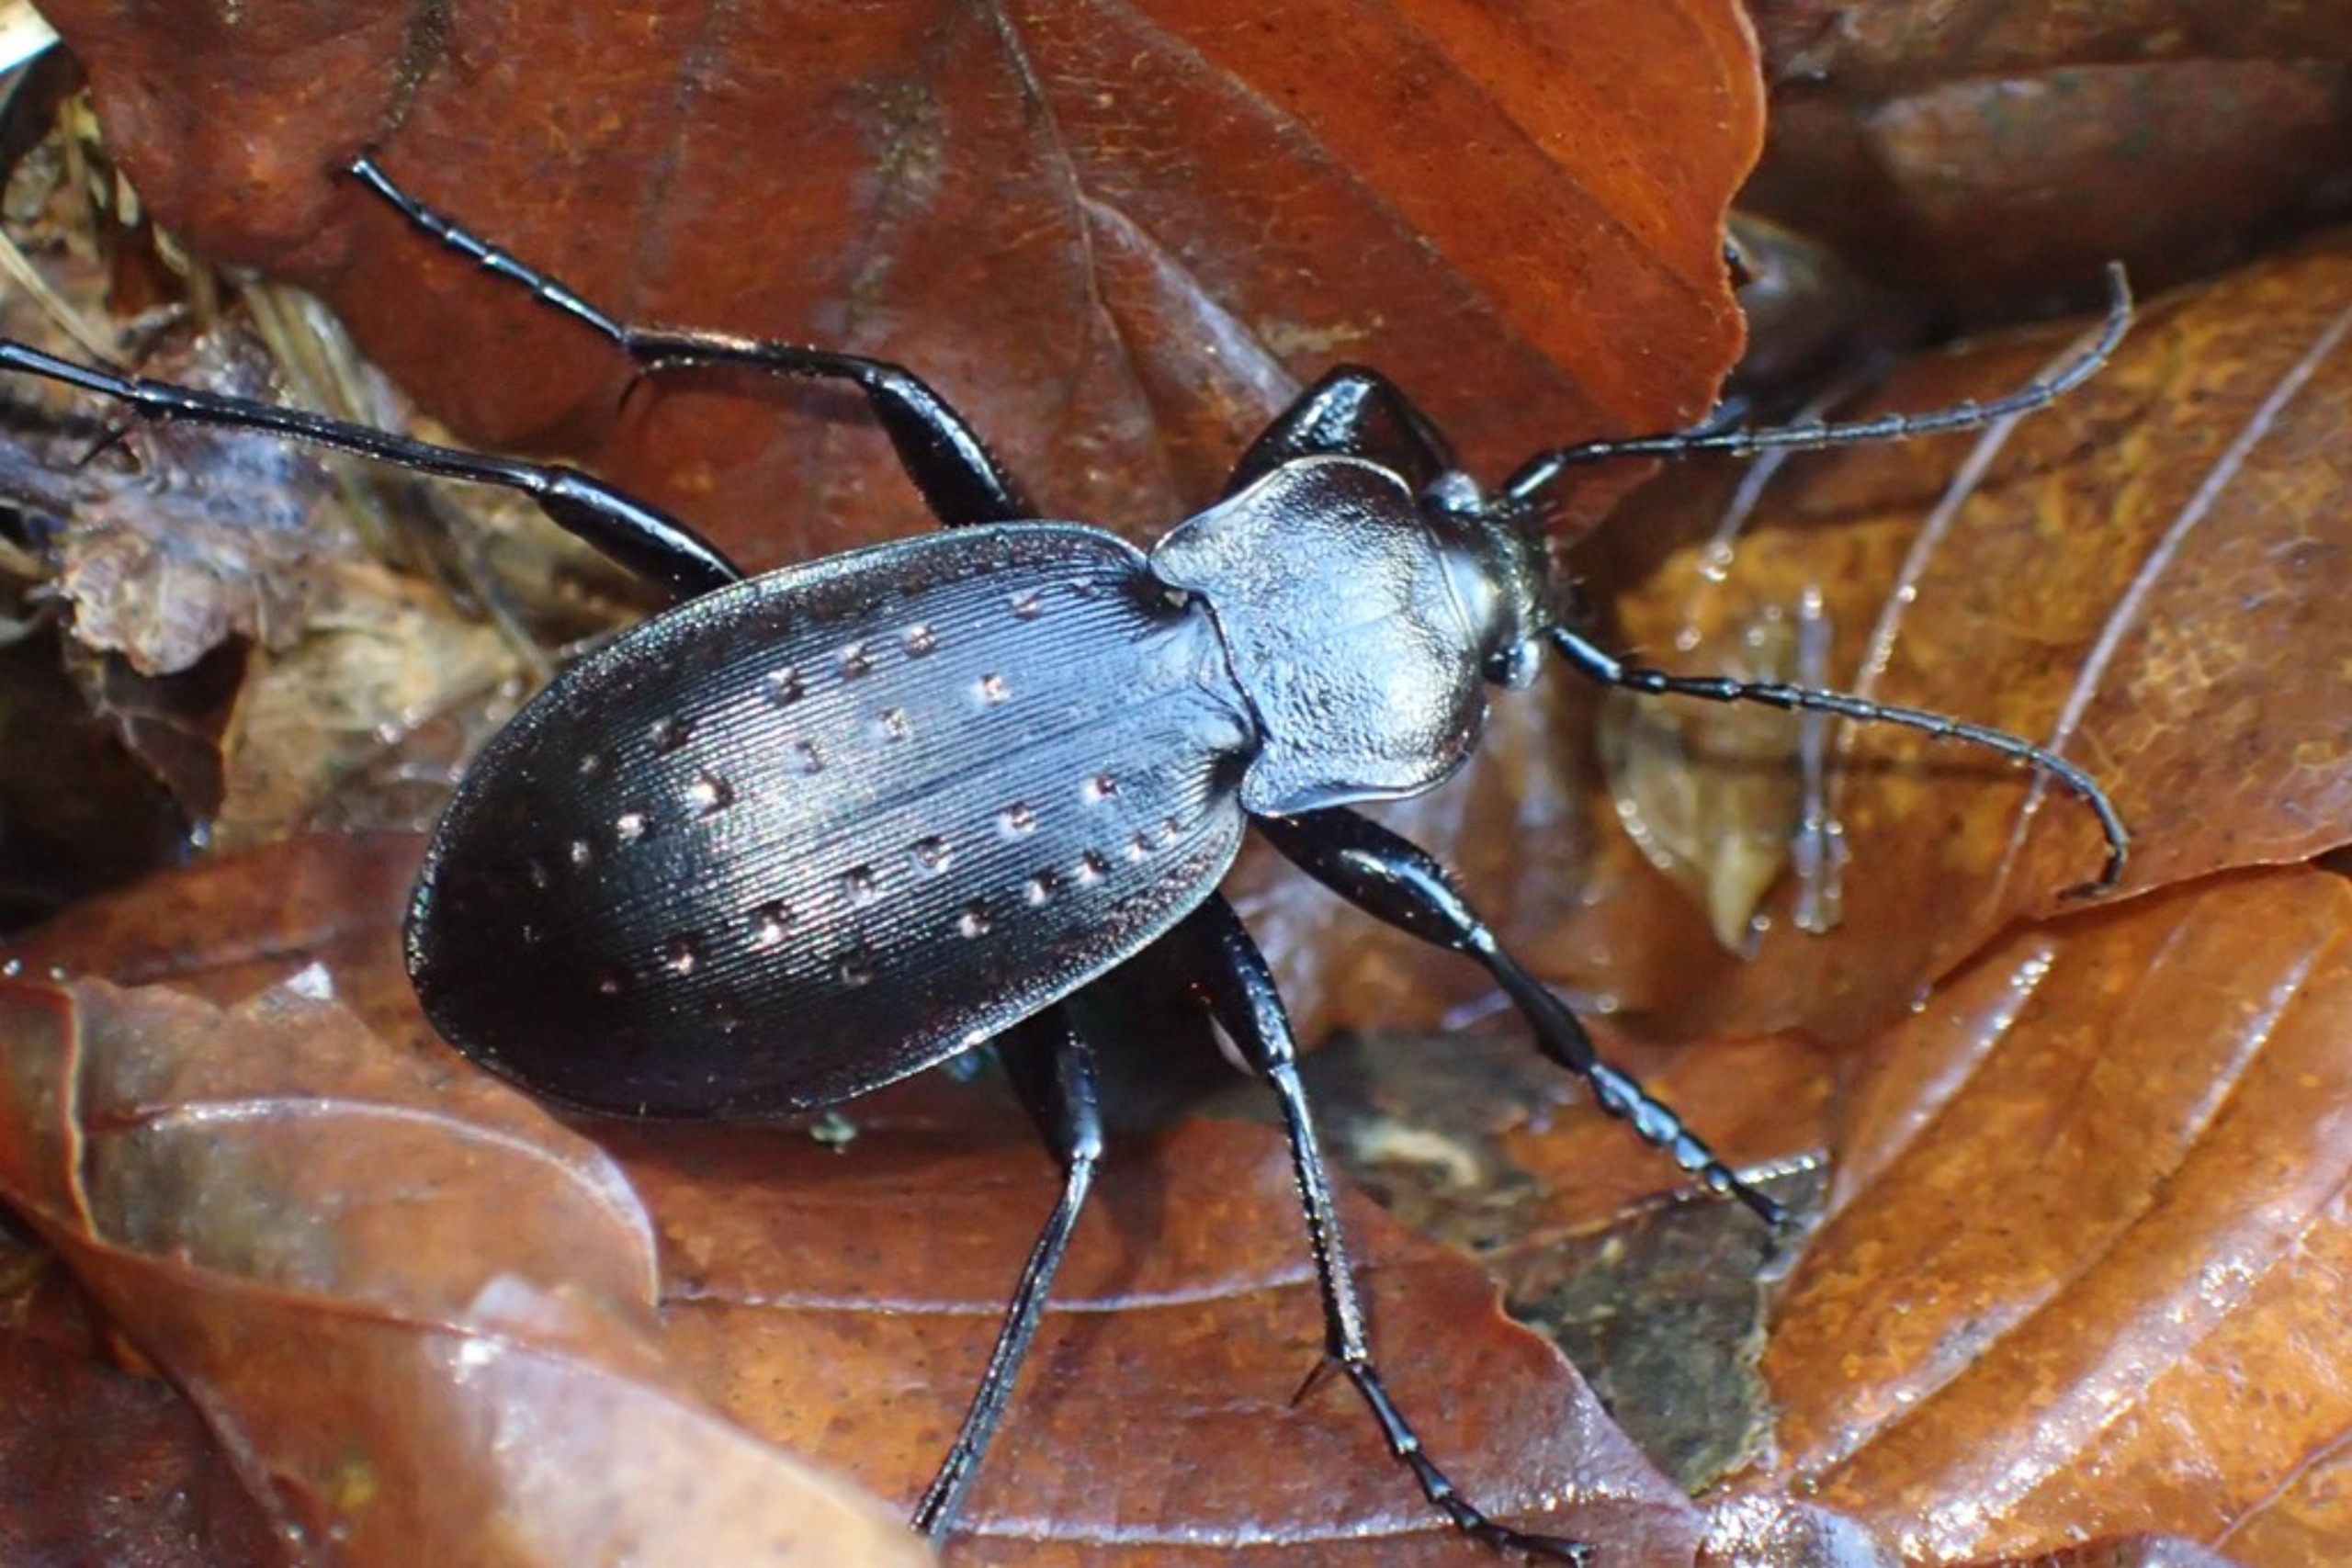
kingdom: Animalia
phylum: Arthropoda
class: Insecta
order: Coleoptera
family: Carabidae
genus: Carabus
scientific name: Carabus hortensis
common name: Guldpletløber
